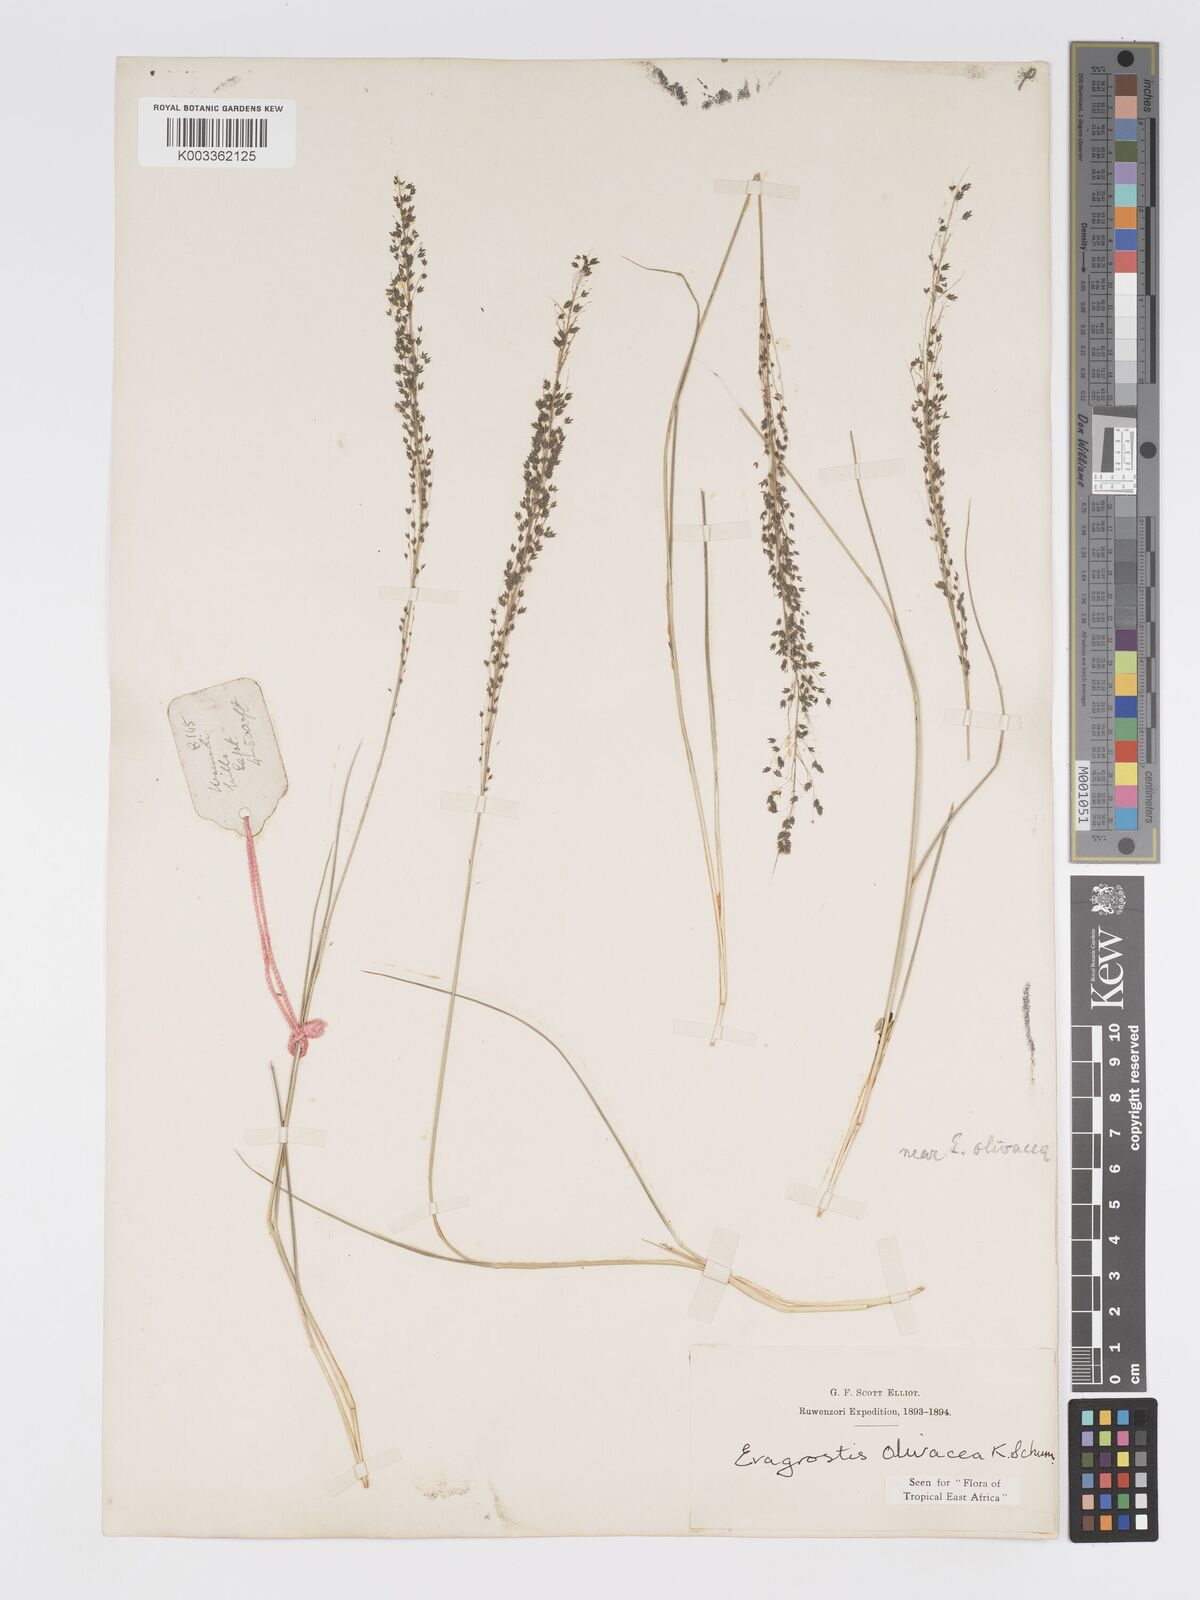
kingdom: Plantae
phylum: Tracheophyta
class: Liliopsida
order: Poales
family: Poaceae
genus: Eragrostis
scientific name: Eragrostis olivacea
